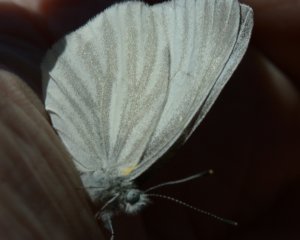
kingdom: Animalia
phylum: Arthropoda
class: Insecta
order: Lepidoptera
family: Pieridae
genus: Pieris
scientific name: Pieris virginiensis
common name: West Virginia White
